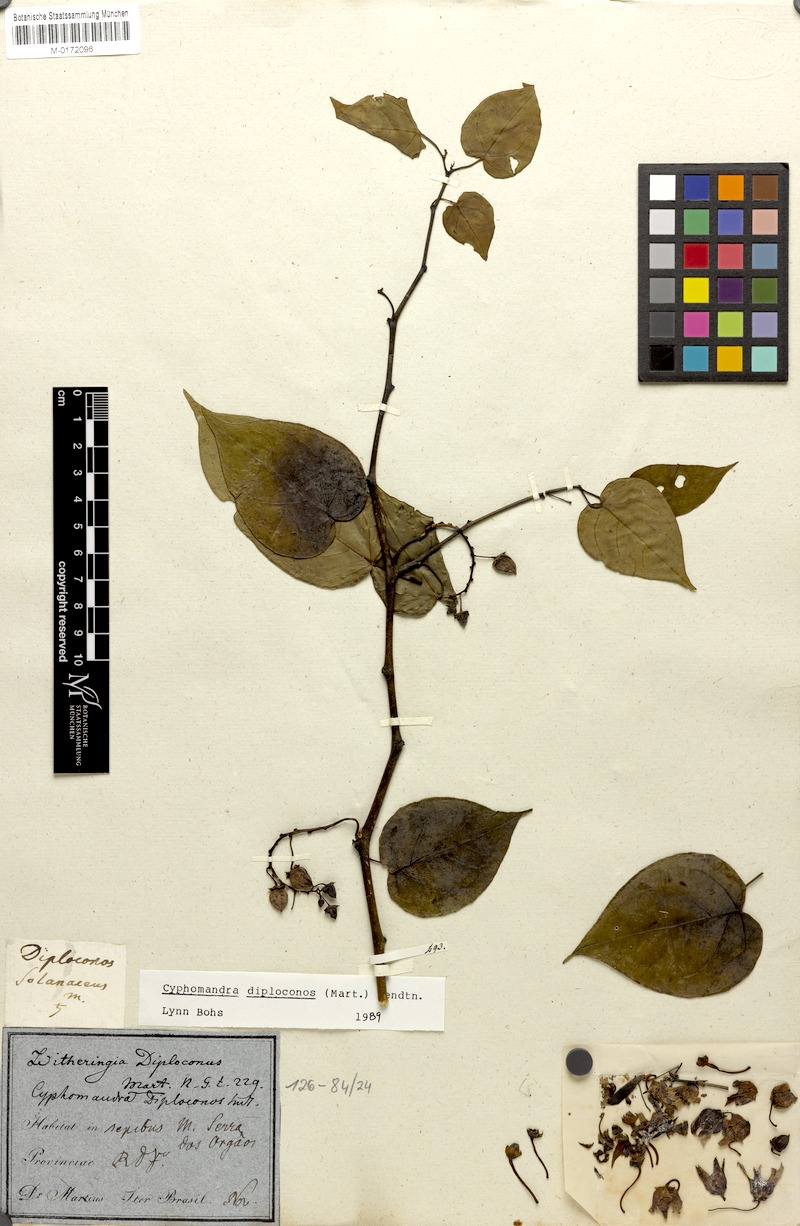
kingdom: Plantae
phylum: Tracheophyta
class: Magnoliopsida
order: Solanales
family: Solanaceae
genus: Solanum
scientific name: Solanum diploconos
